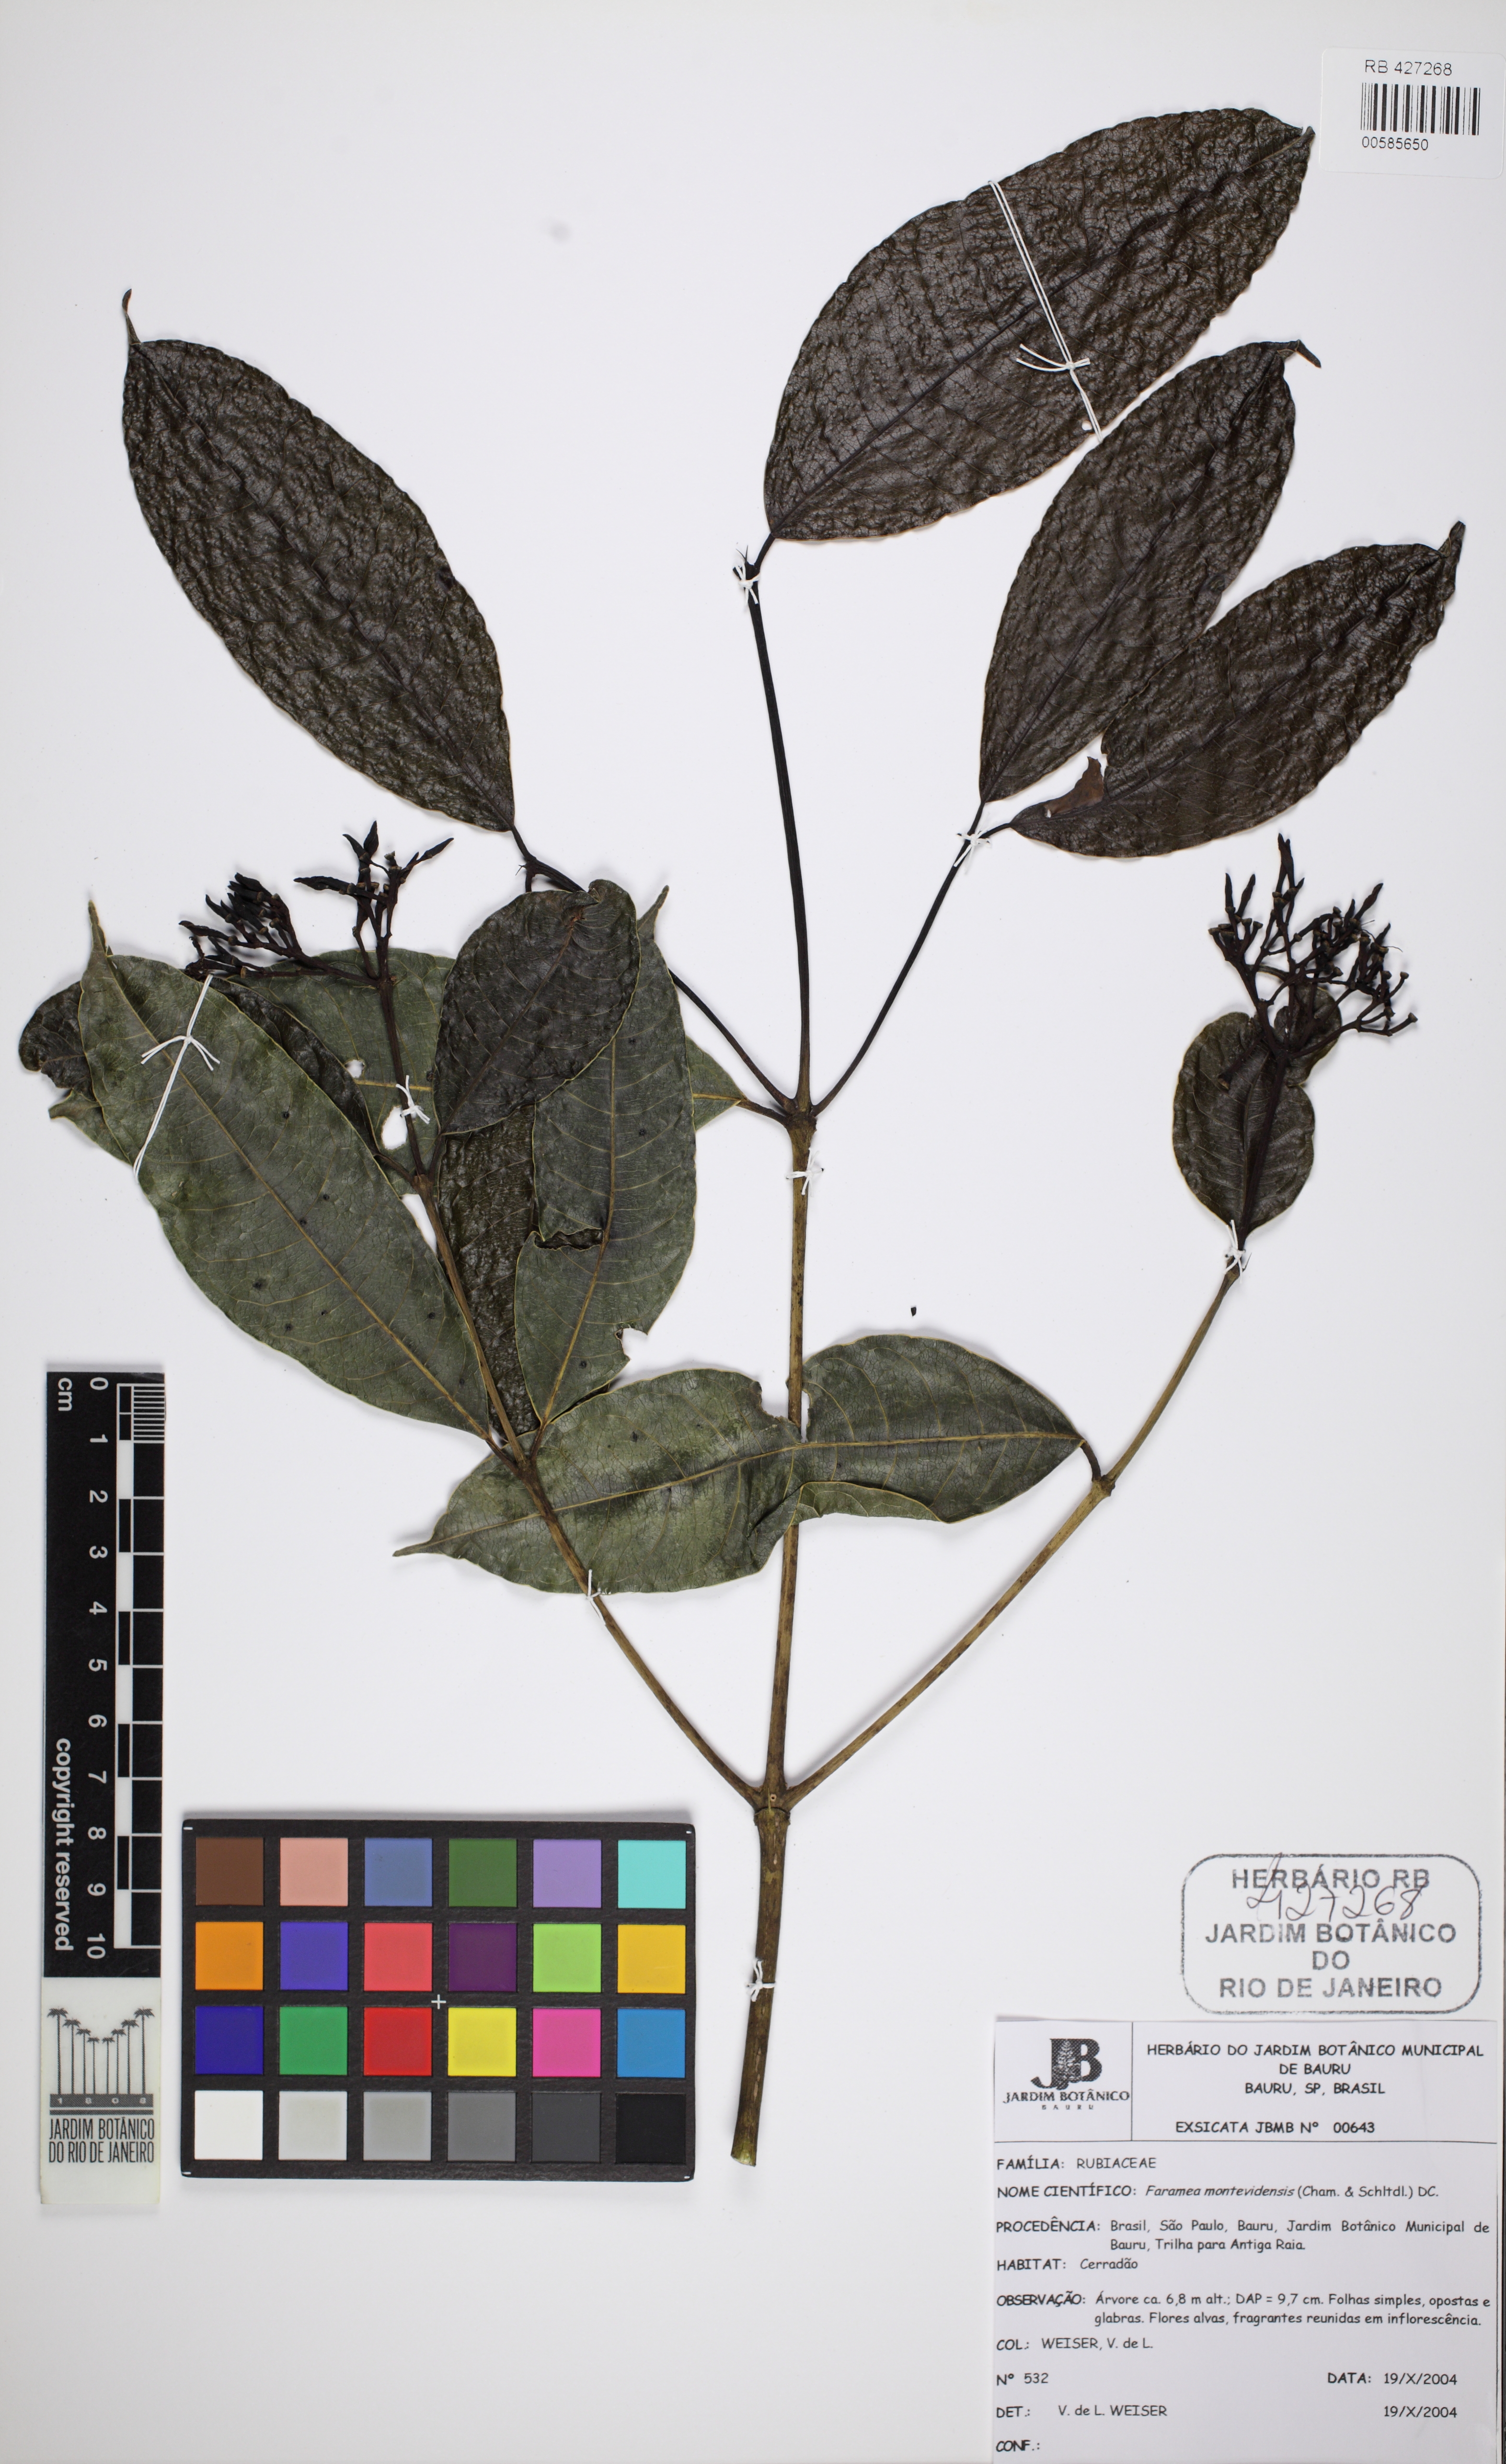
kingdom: Plantae
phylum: Tracheophyta
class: Magnoliopsida
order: Gentianales
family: Rubiaceae
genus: Faramea
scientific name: Faramea montevidensis
